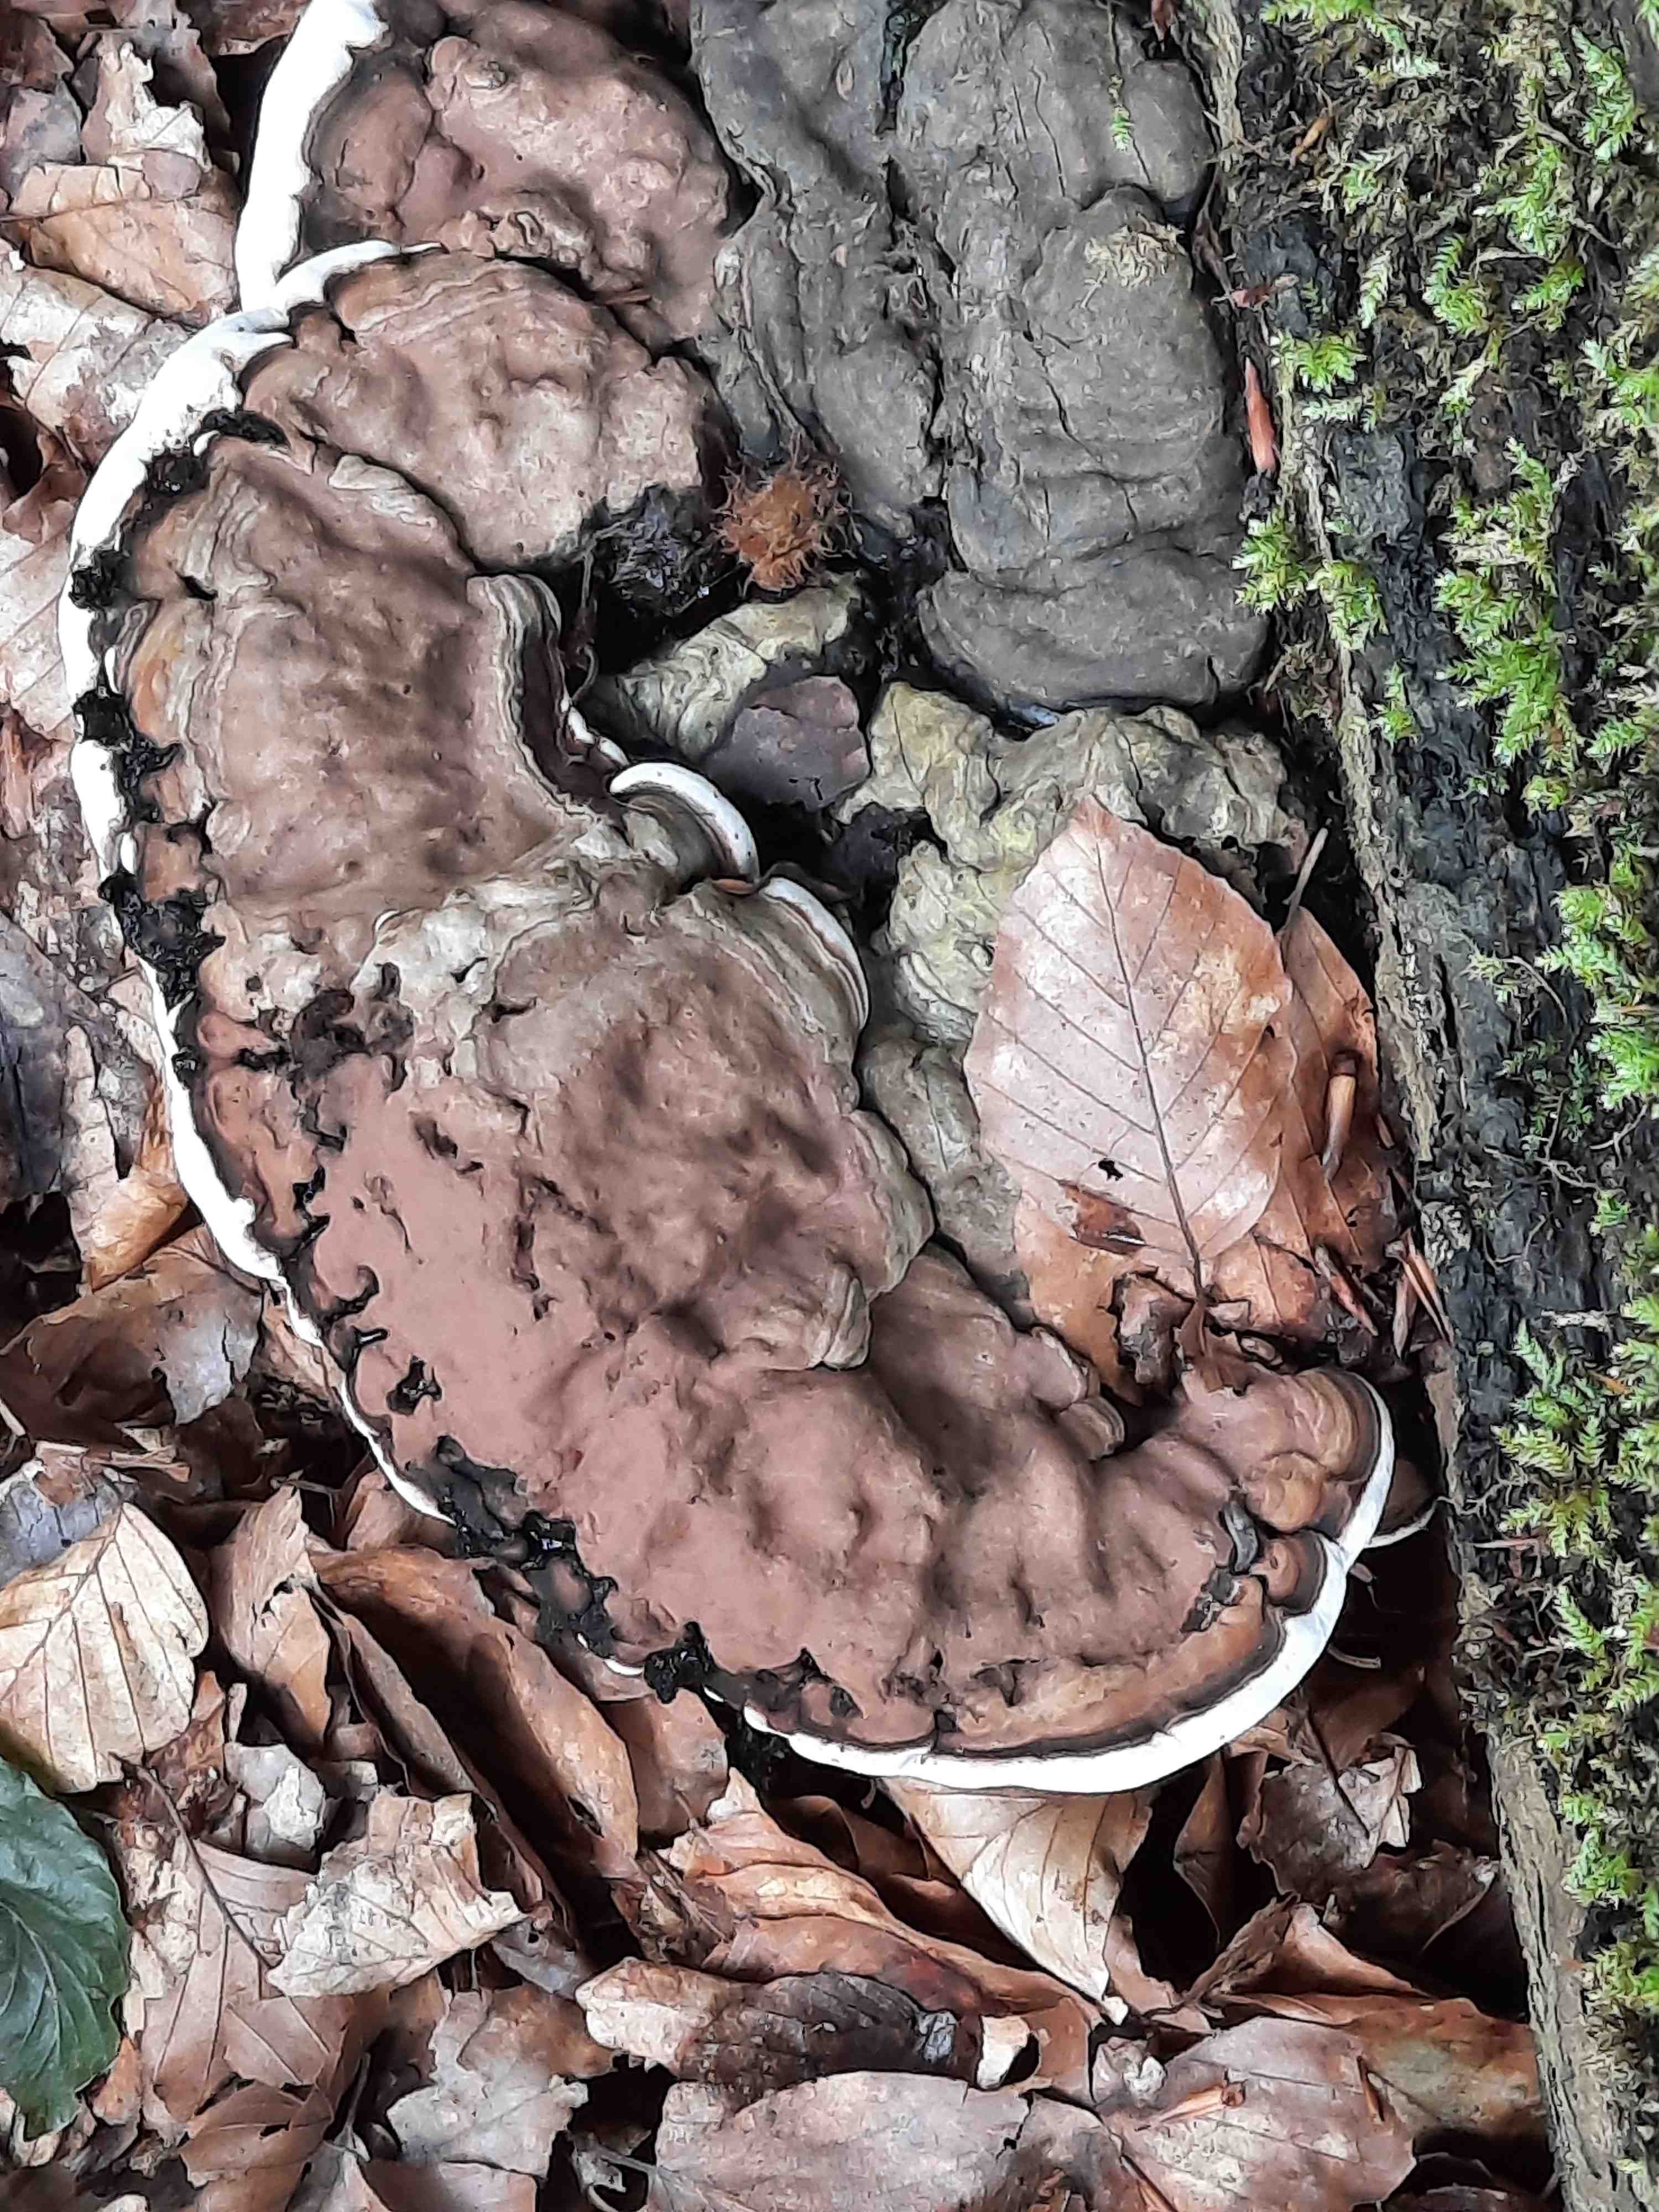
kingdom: Fungi
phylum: Basidiomycota
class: Agaricomycetes
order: Polyporales
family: Polyporaceae
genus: Ganoderma
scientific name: Ganoderma applanatum
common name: flad lakporesvamp
